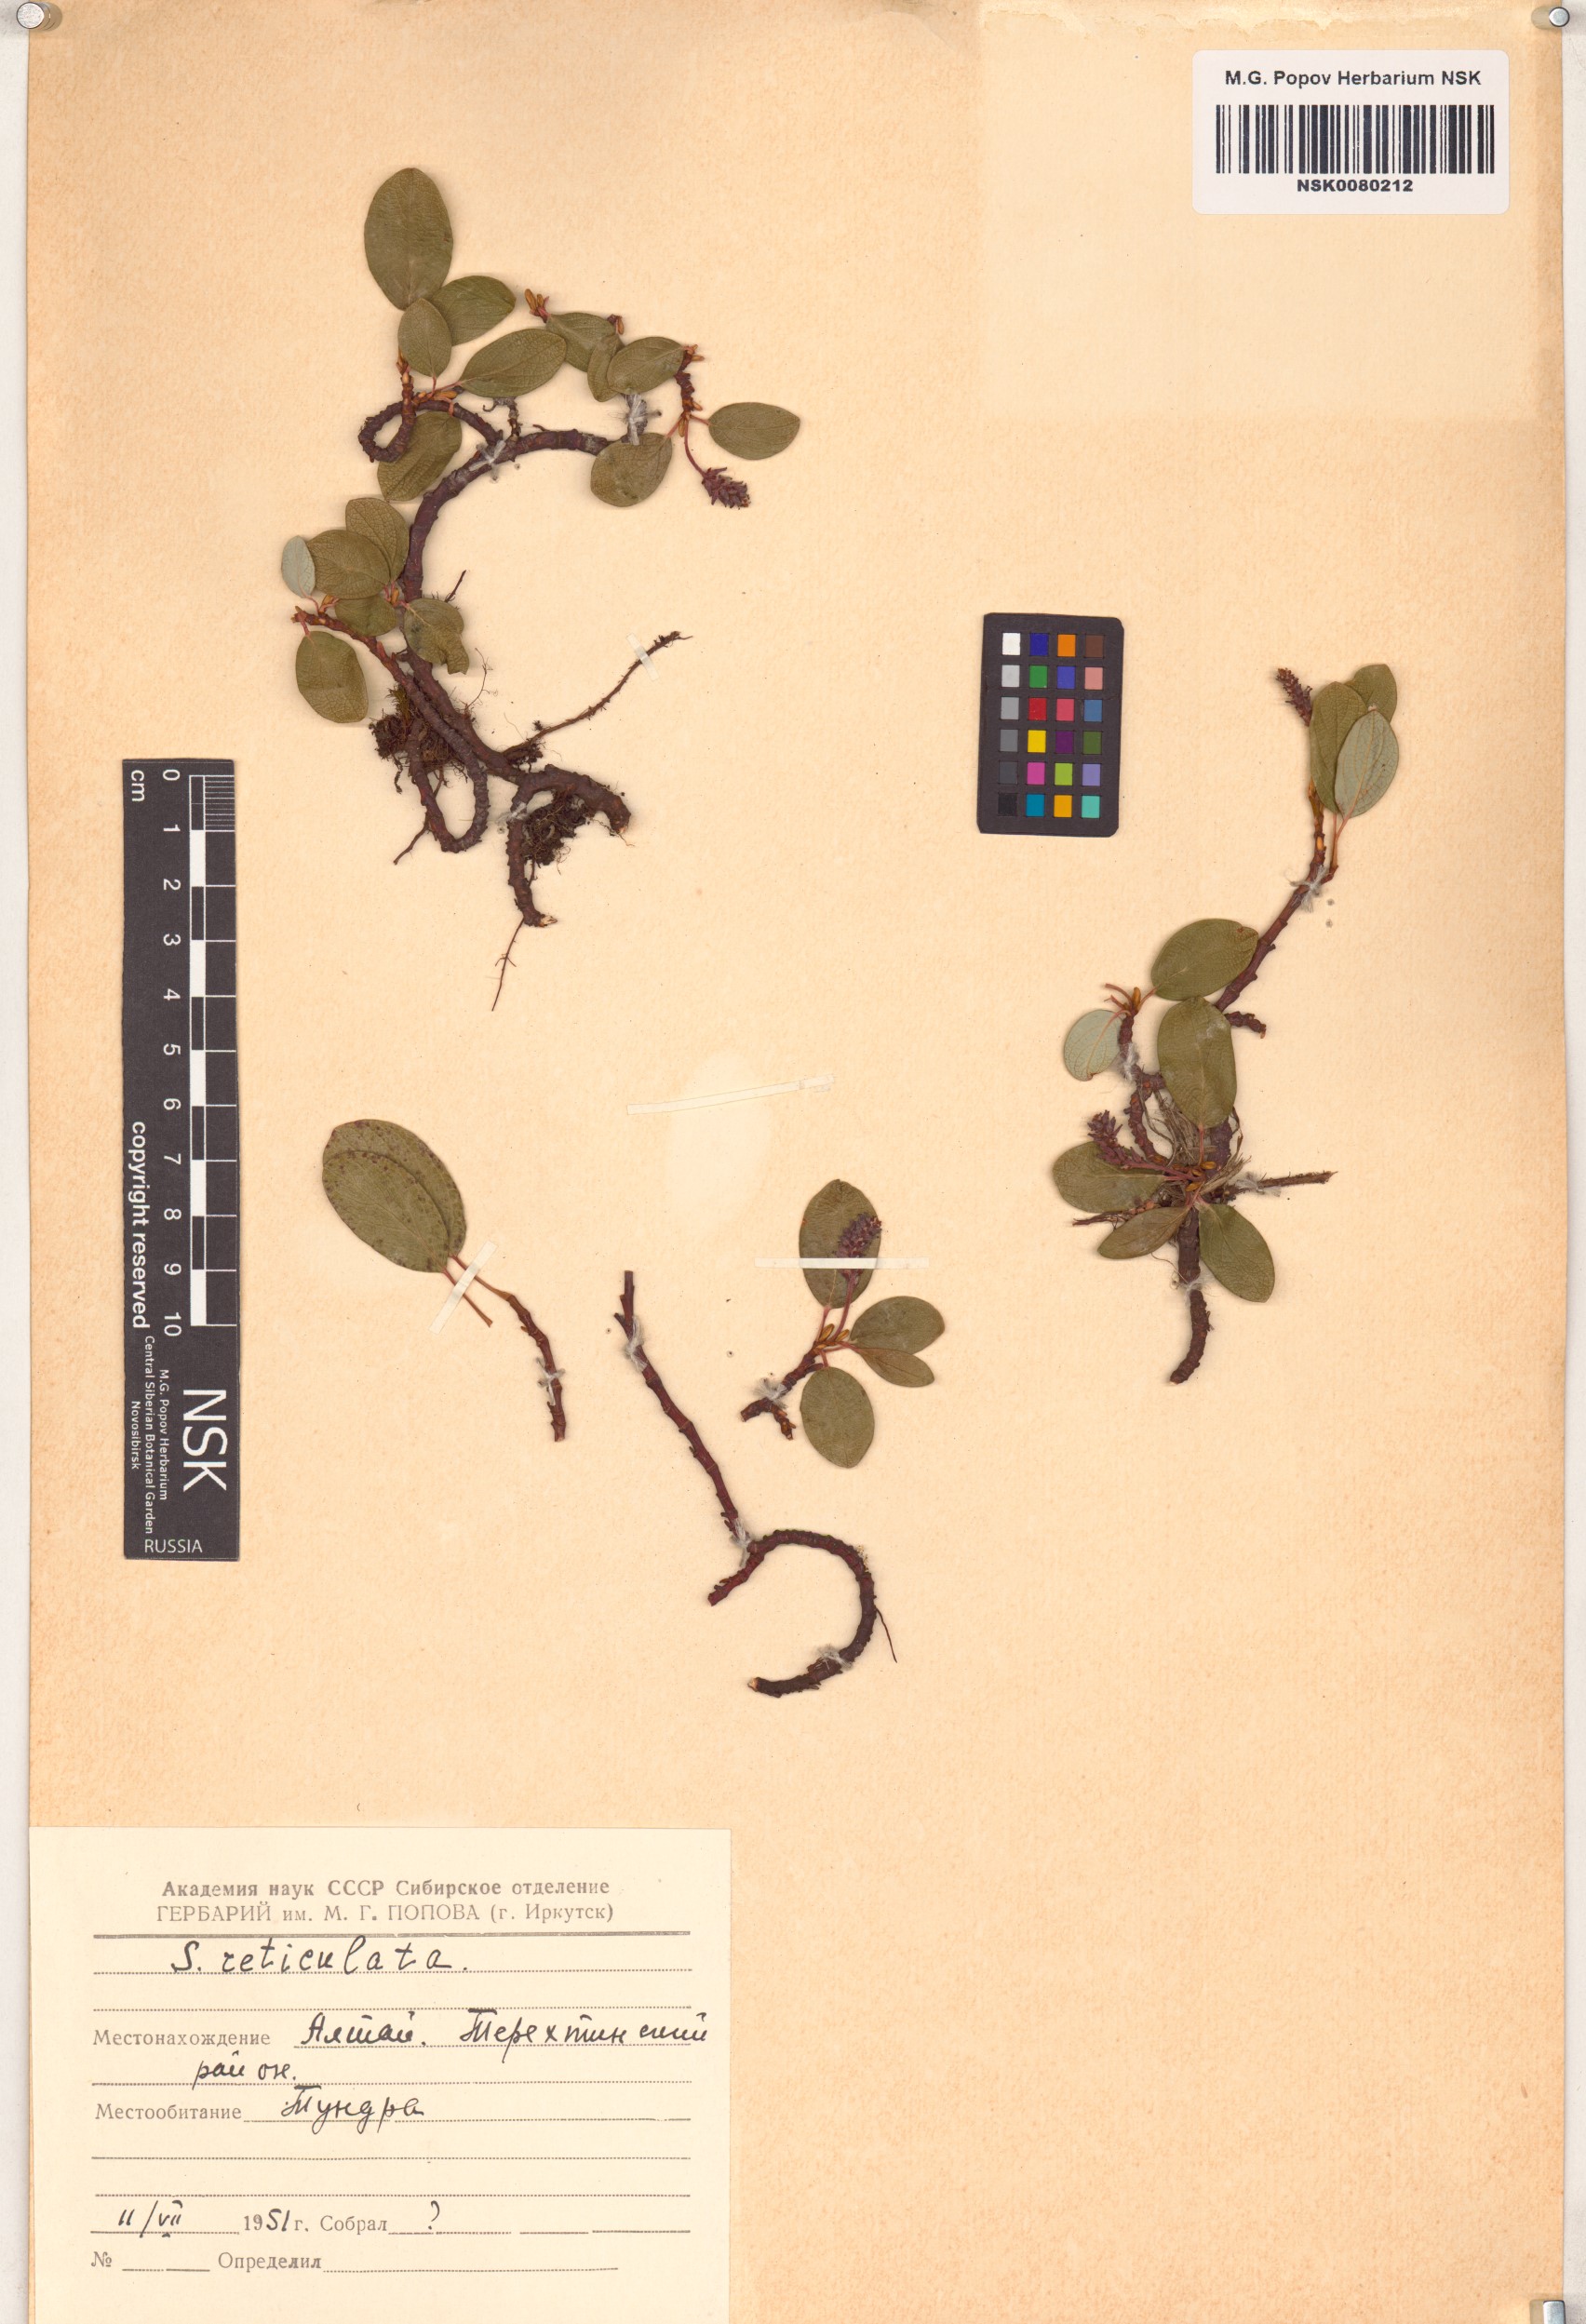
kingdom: Plantae
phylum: Tracheophyta
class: Magnoliopsida
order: Malpighiales
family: Salicaceae
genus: Salix
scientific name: Salix reticulata
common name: Net-leaved willow
